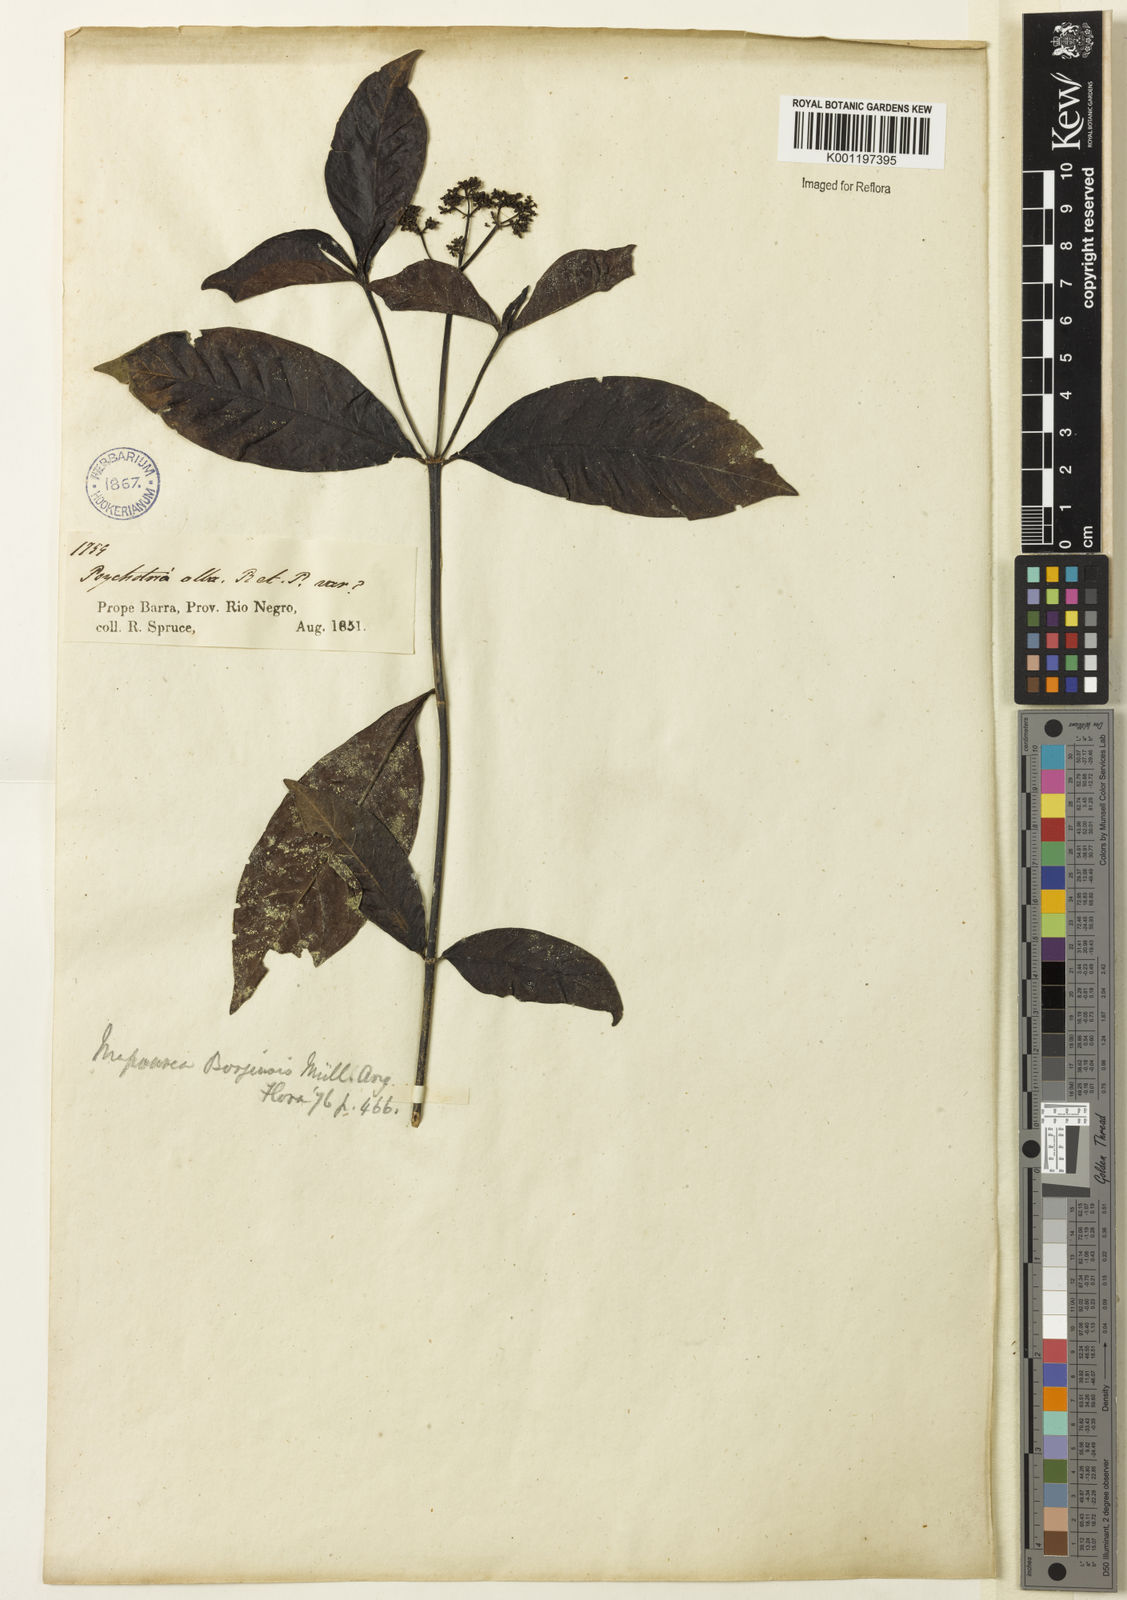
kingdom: Plantae
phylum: Tracheophyta
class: Magnoliopsida
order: Gentianales
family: Rubiaceae
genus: Psychotria
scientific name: Psychotria borjensis
